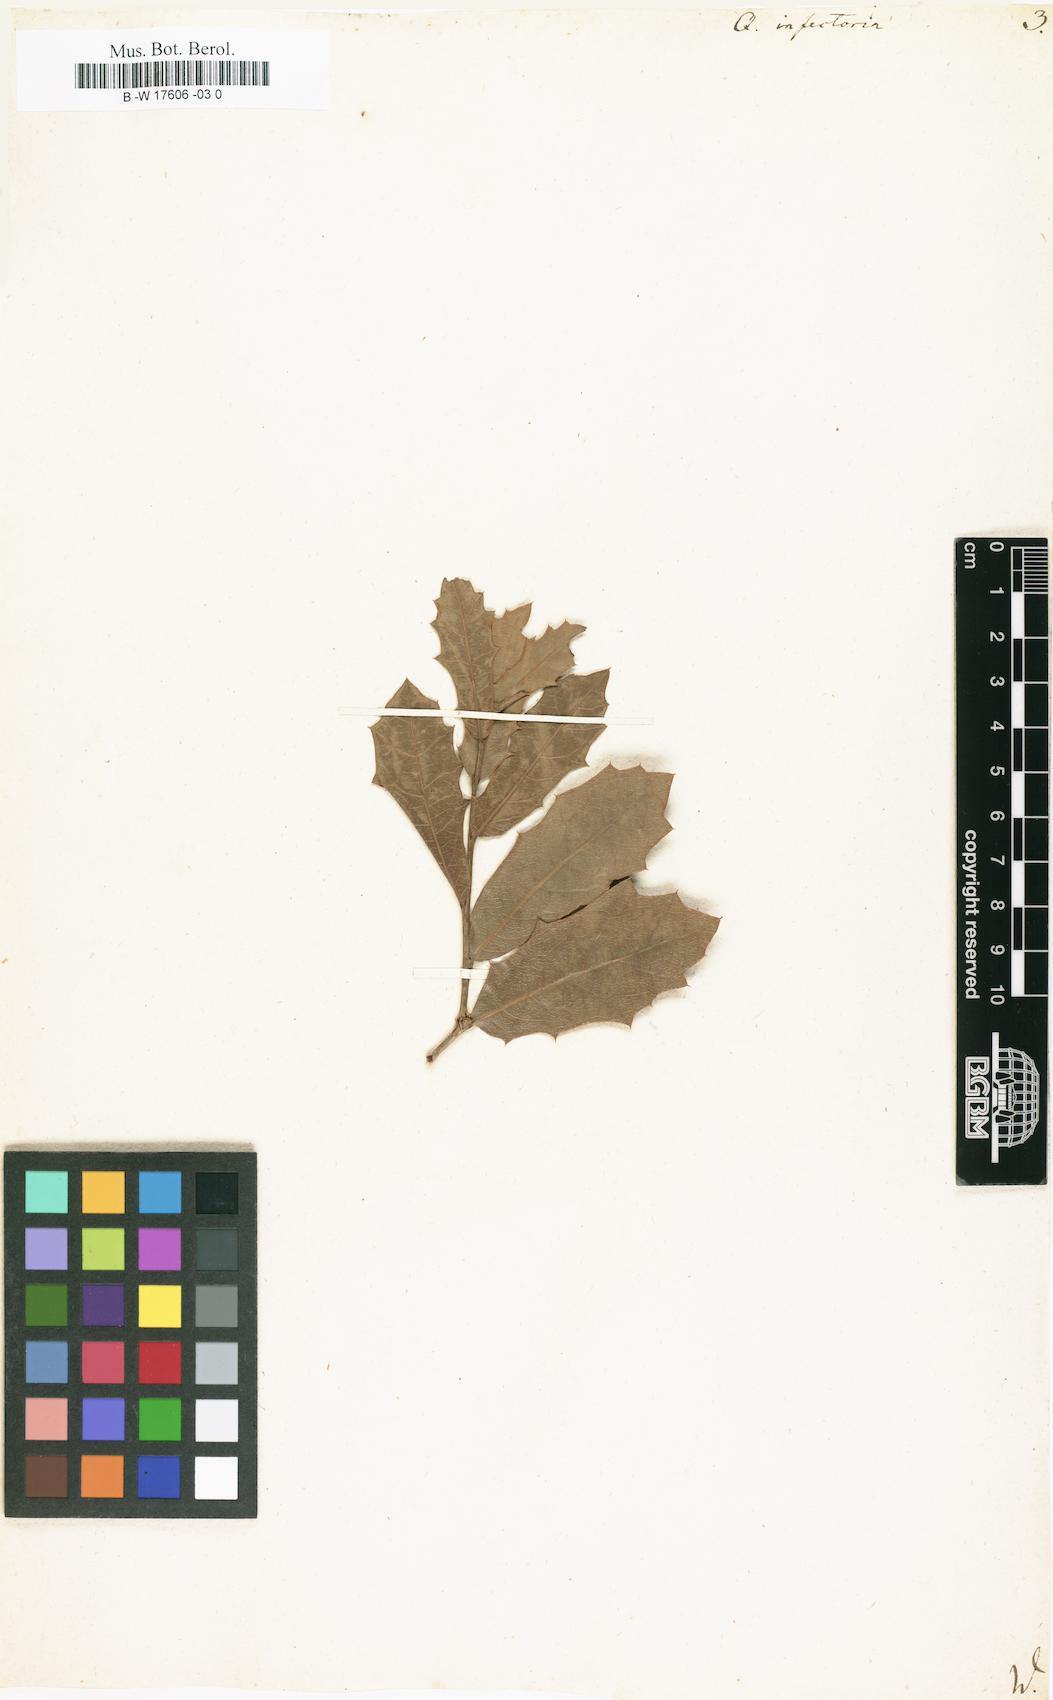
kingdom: Plantae
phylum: Tracheophyta
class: Magnoliopsida
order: Fagales
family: Fagaceae
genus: Quercus
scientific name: Quercus infectoria
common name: Aleppo oak
